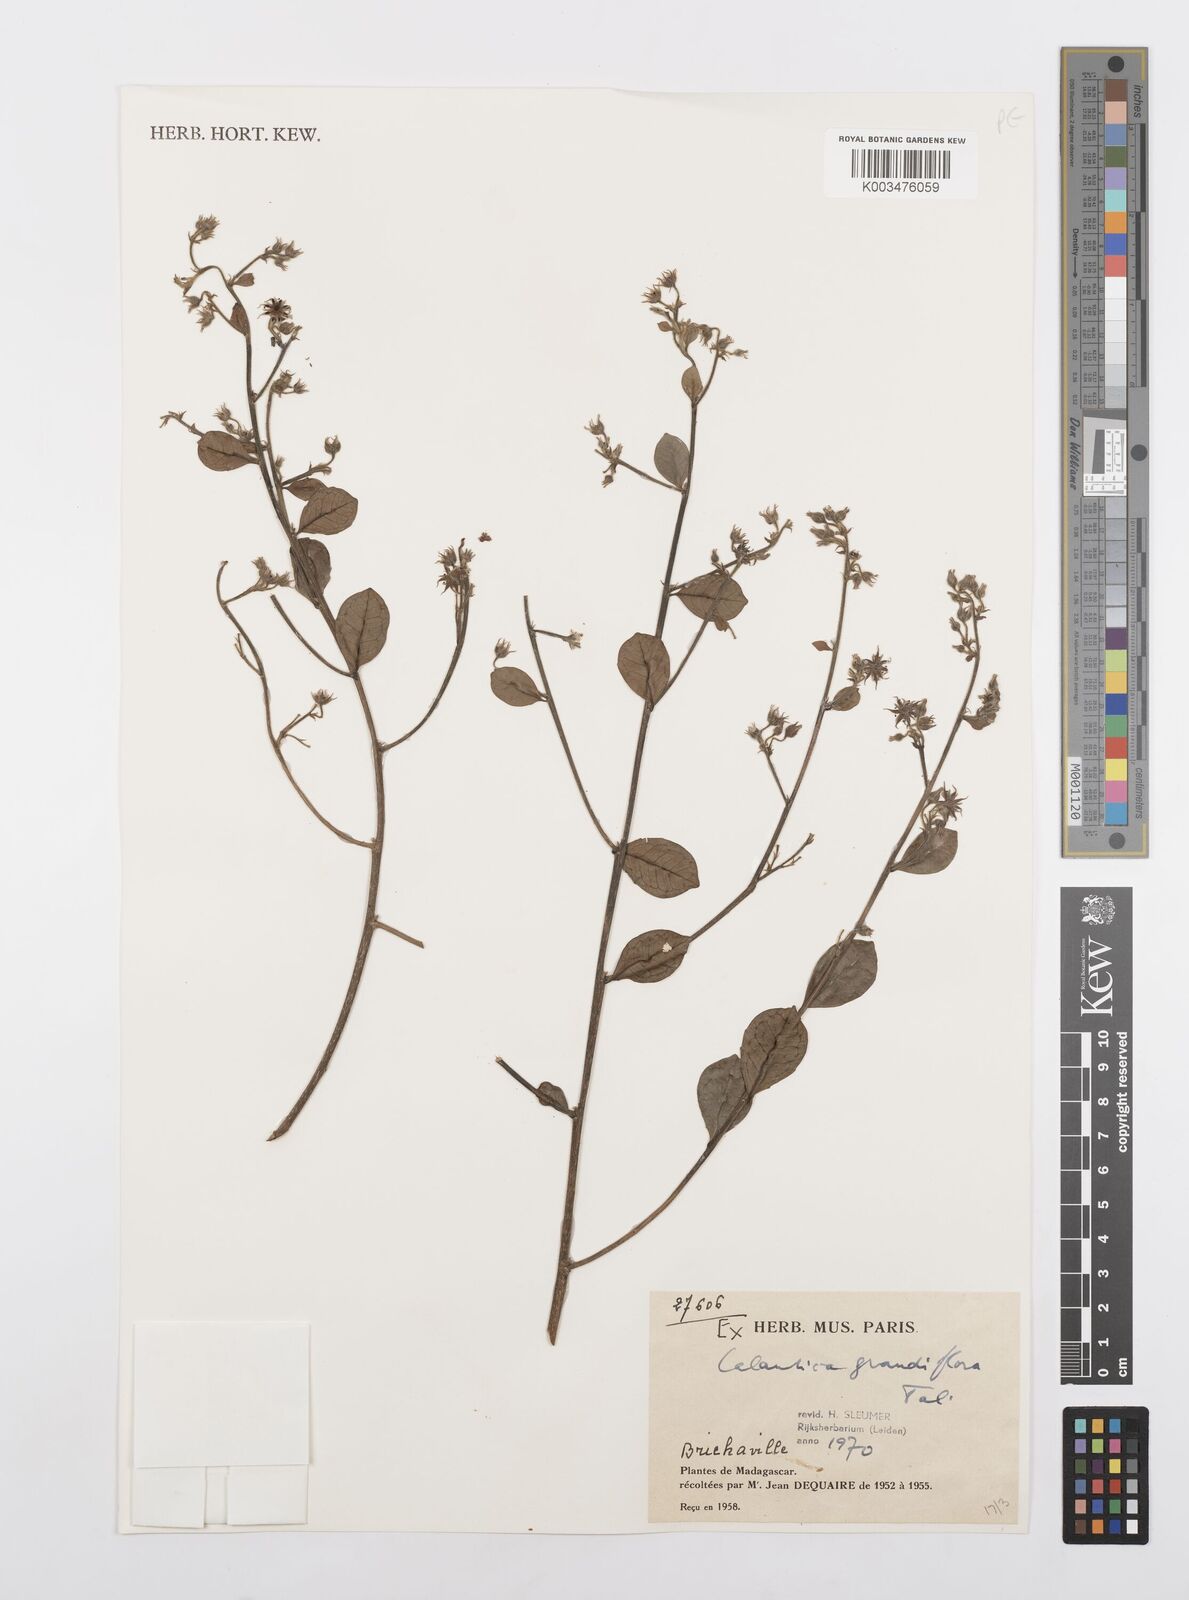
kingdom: Plantae
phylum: Tracheophyta
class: Magnoliopsida
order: Malpighiales
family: Salicaceae
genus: Calantica
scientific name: Calantica grandiflora
